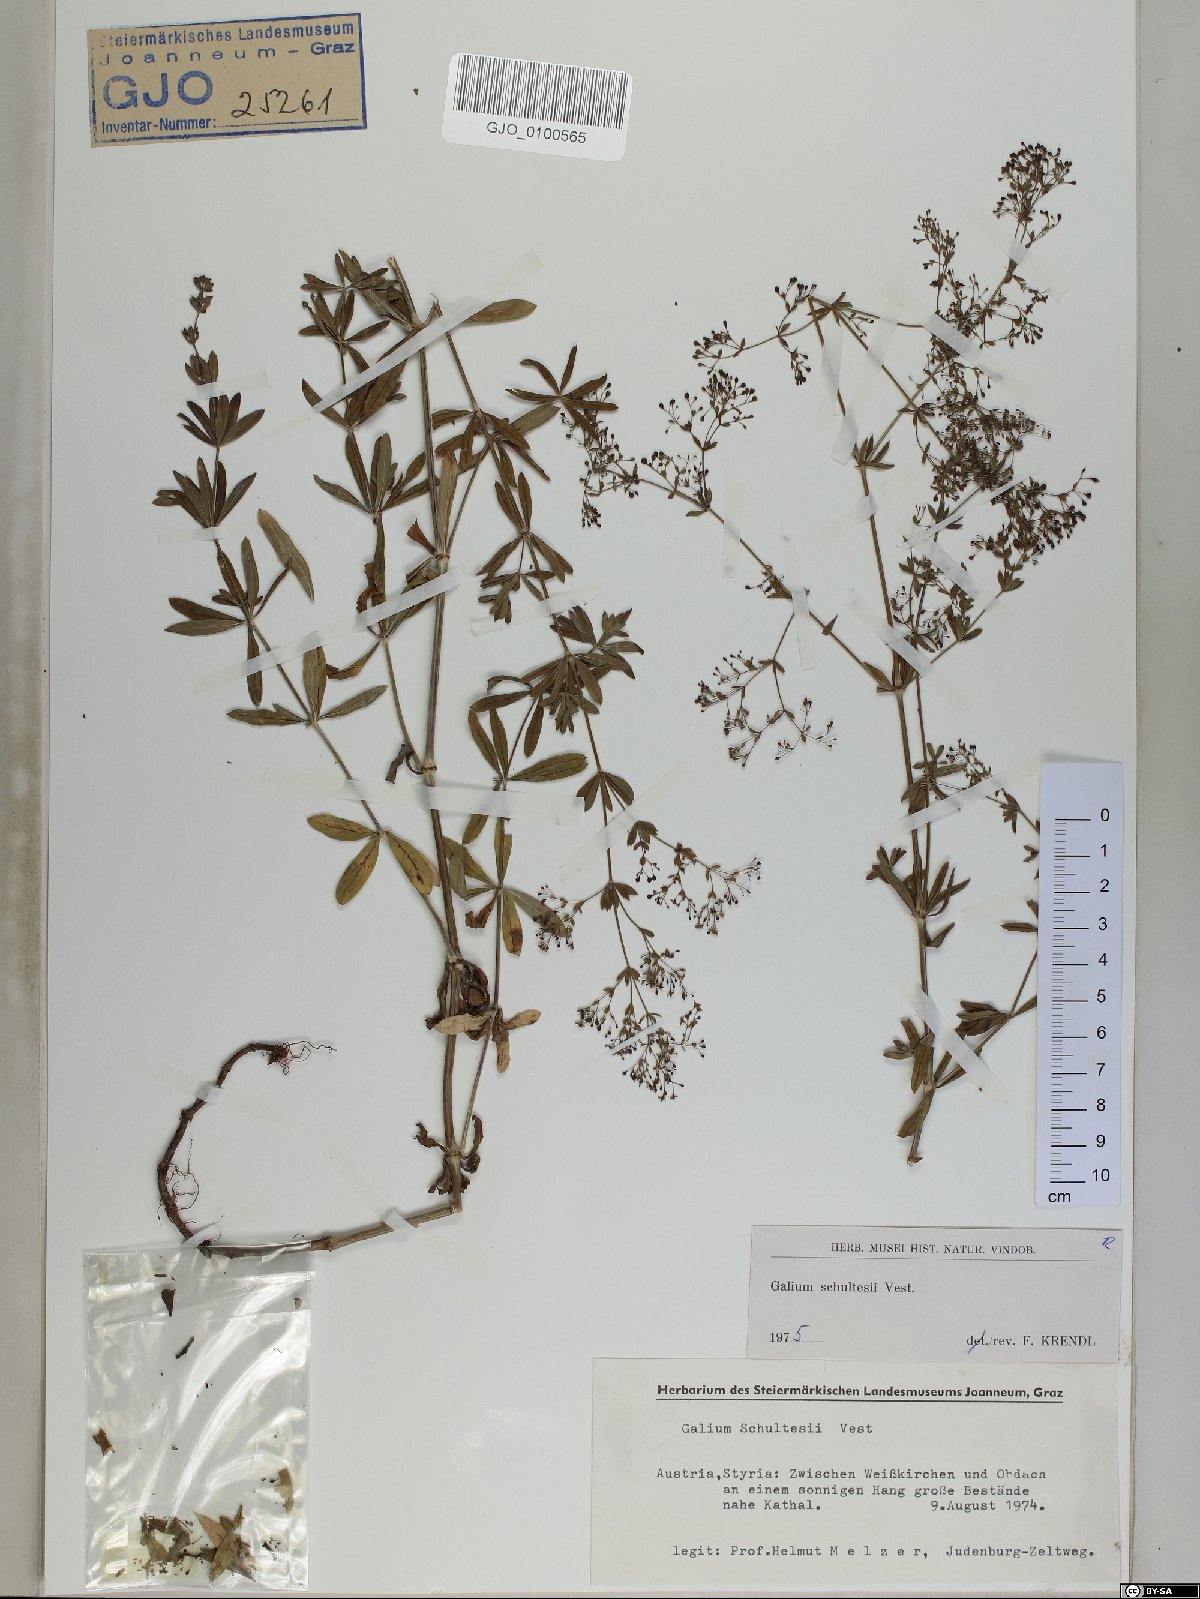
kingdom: Plantae
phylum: Tracheophyta
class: Magnoliopsida
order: Gentianales
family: Rubiaceae
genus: Galium
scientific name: Galium intermedium
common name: Bedstraw
